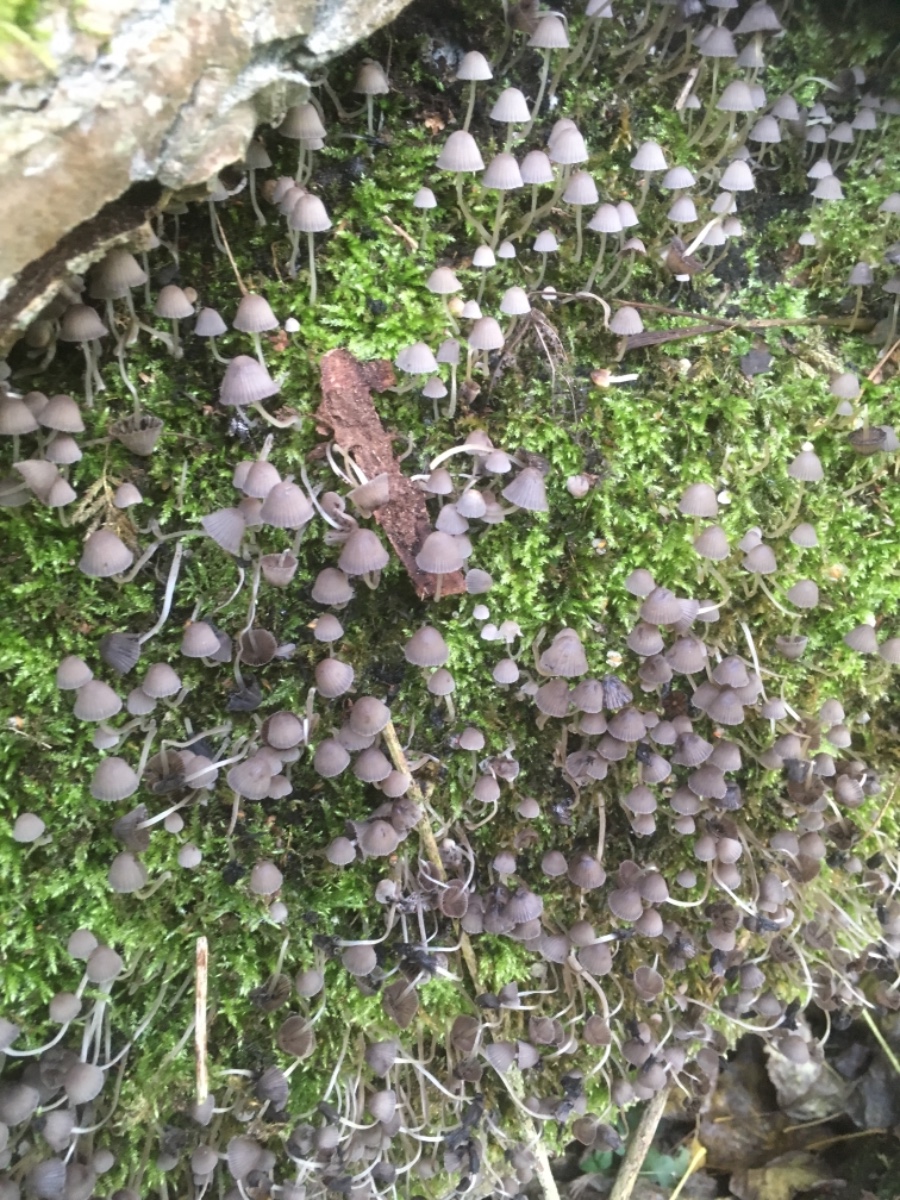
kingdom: Fungi
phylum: Basidiomycota
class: Agaricomycetes
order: Agaricales
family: Psathyrellaceae
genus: Coprinellus
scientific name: Coprinellus disseminatus
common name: bredsået blækhat
